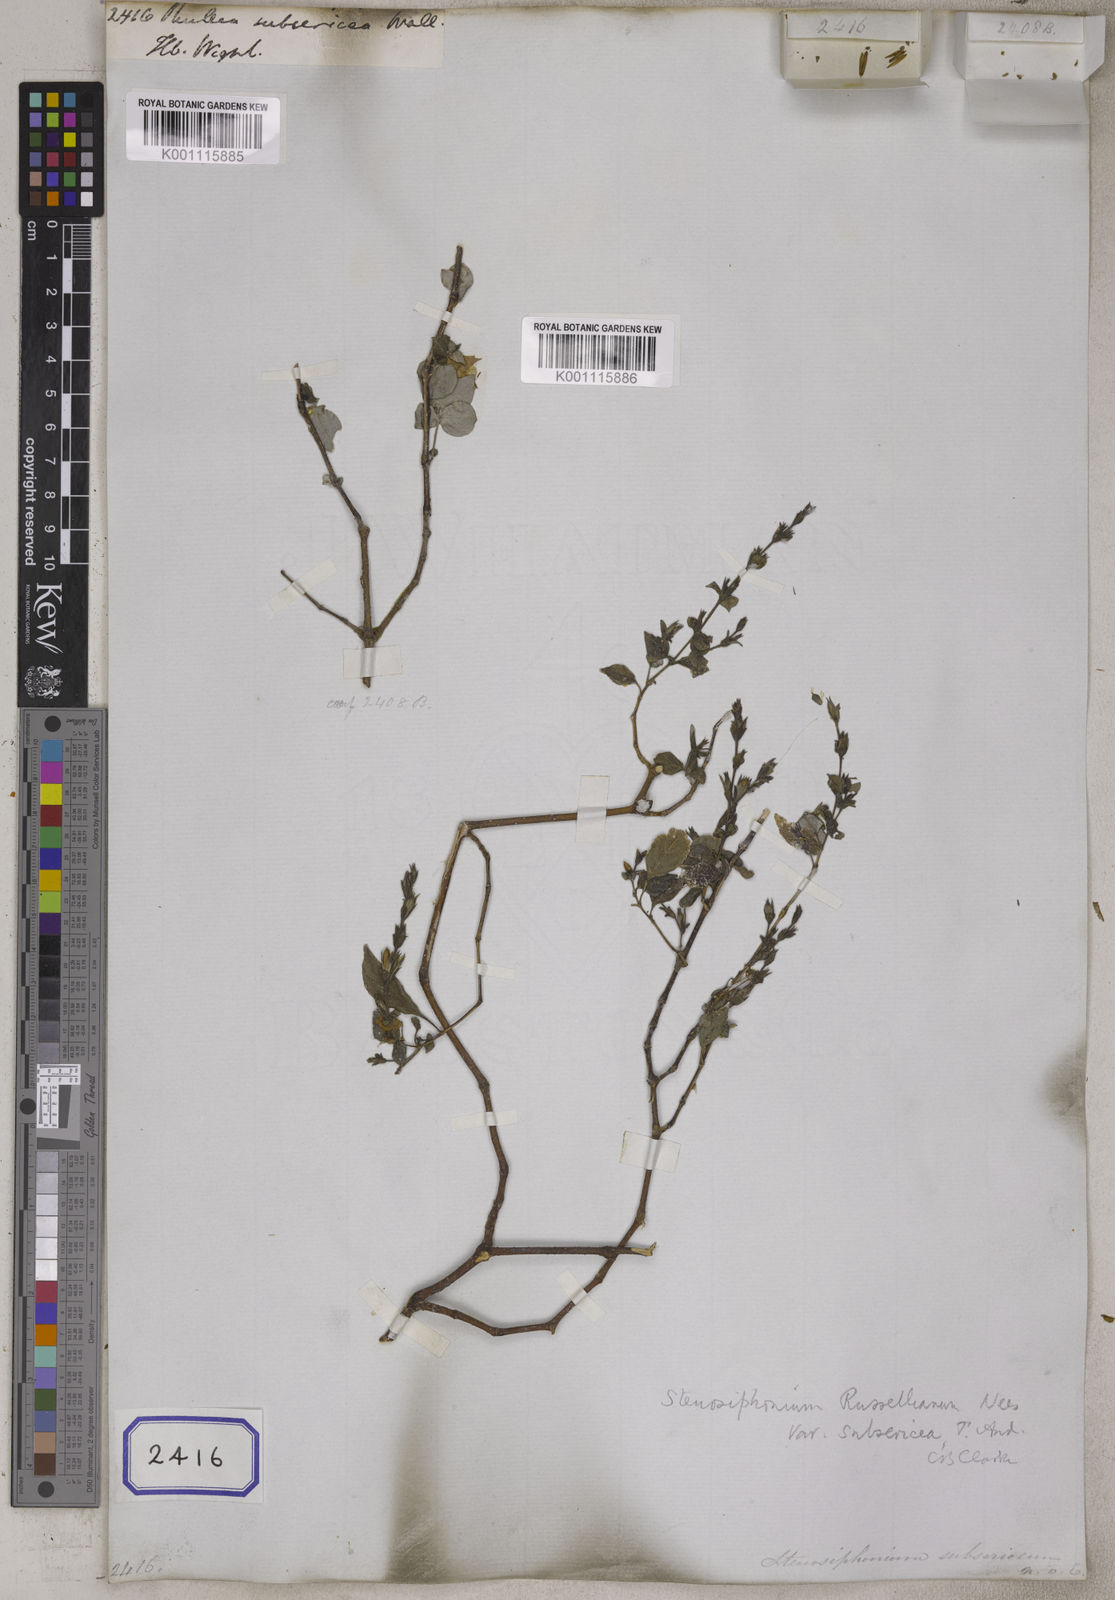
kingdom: Plantae
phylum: Tracheophyta
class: Magnoliopsida
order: Lamiales
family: Acanthaceae
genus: Strobilanthes
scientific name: Strobilanthes consanguinea
